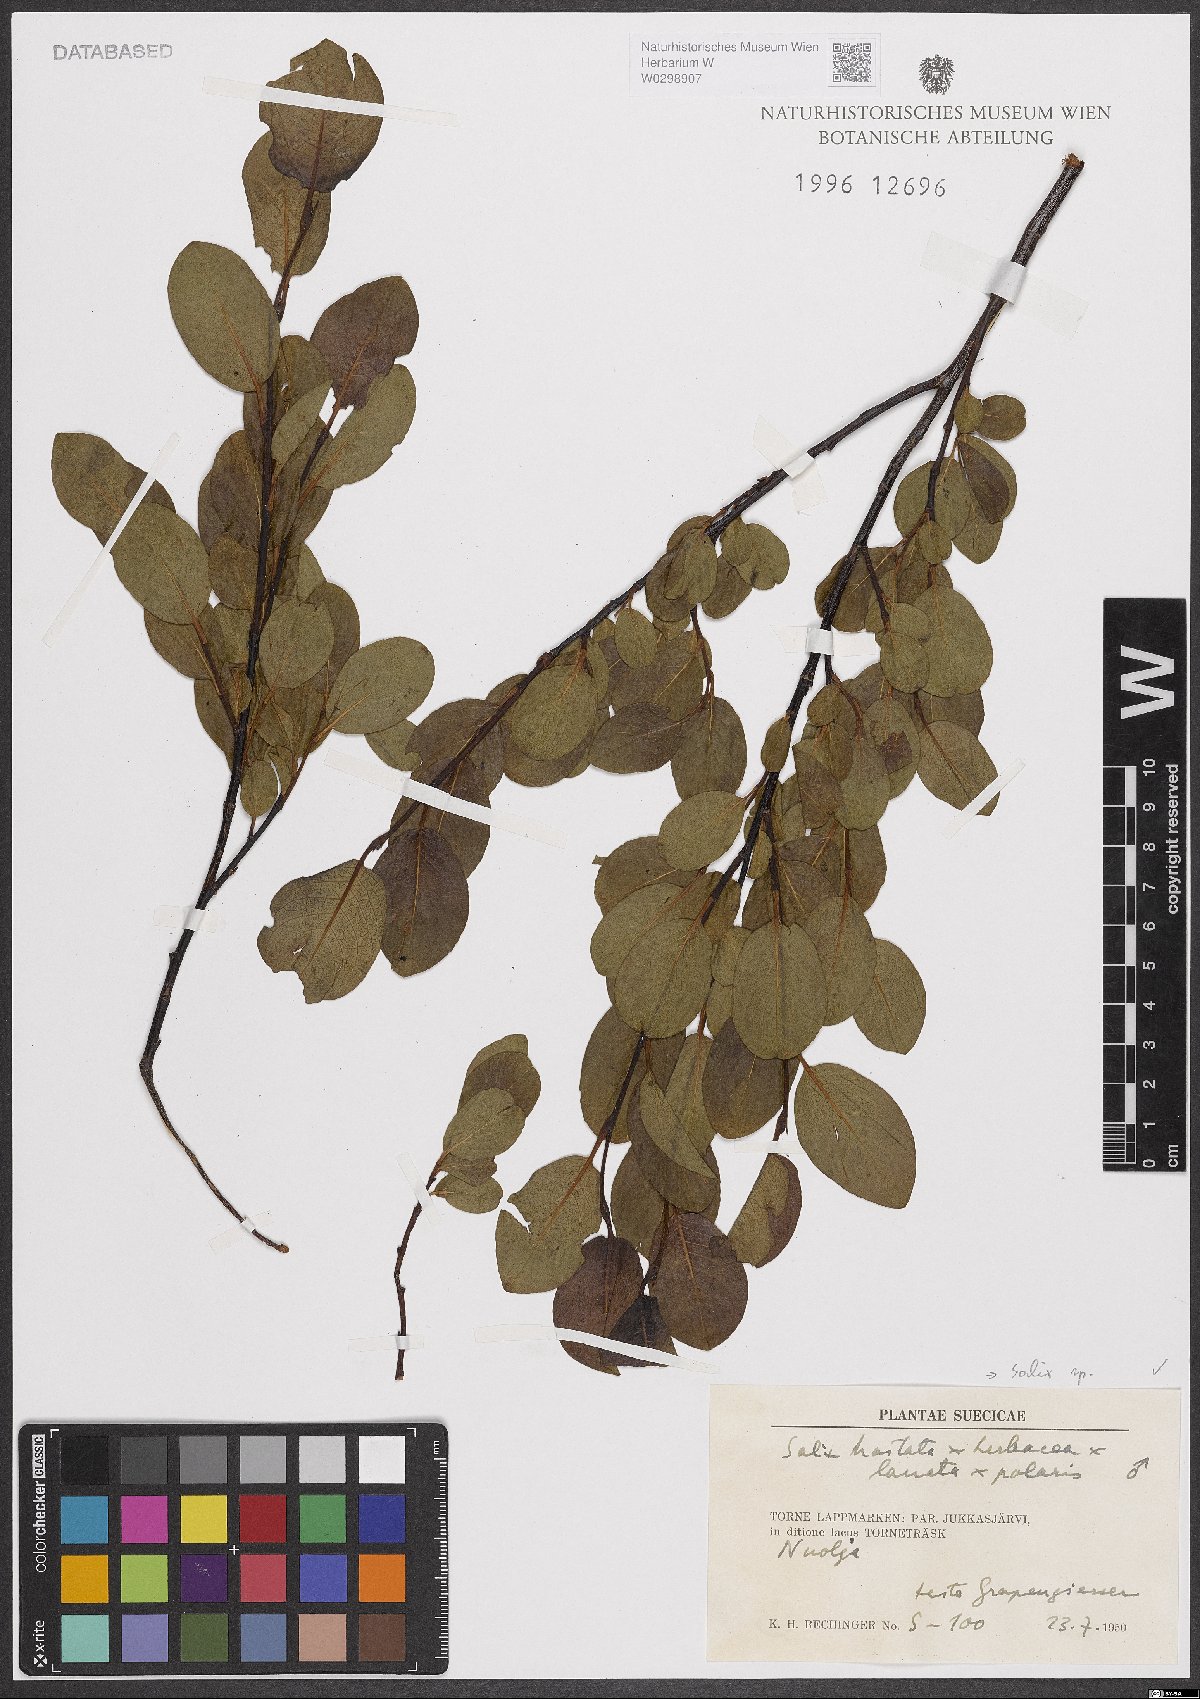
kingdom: Plantae
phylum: Tracheophyta
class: Magnoliopsida
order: Malpighiales
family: Salicaceae
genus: Salix
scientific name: Salix
